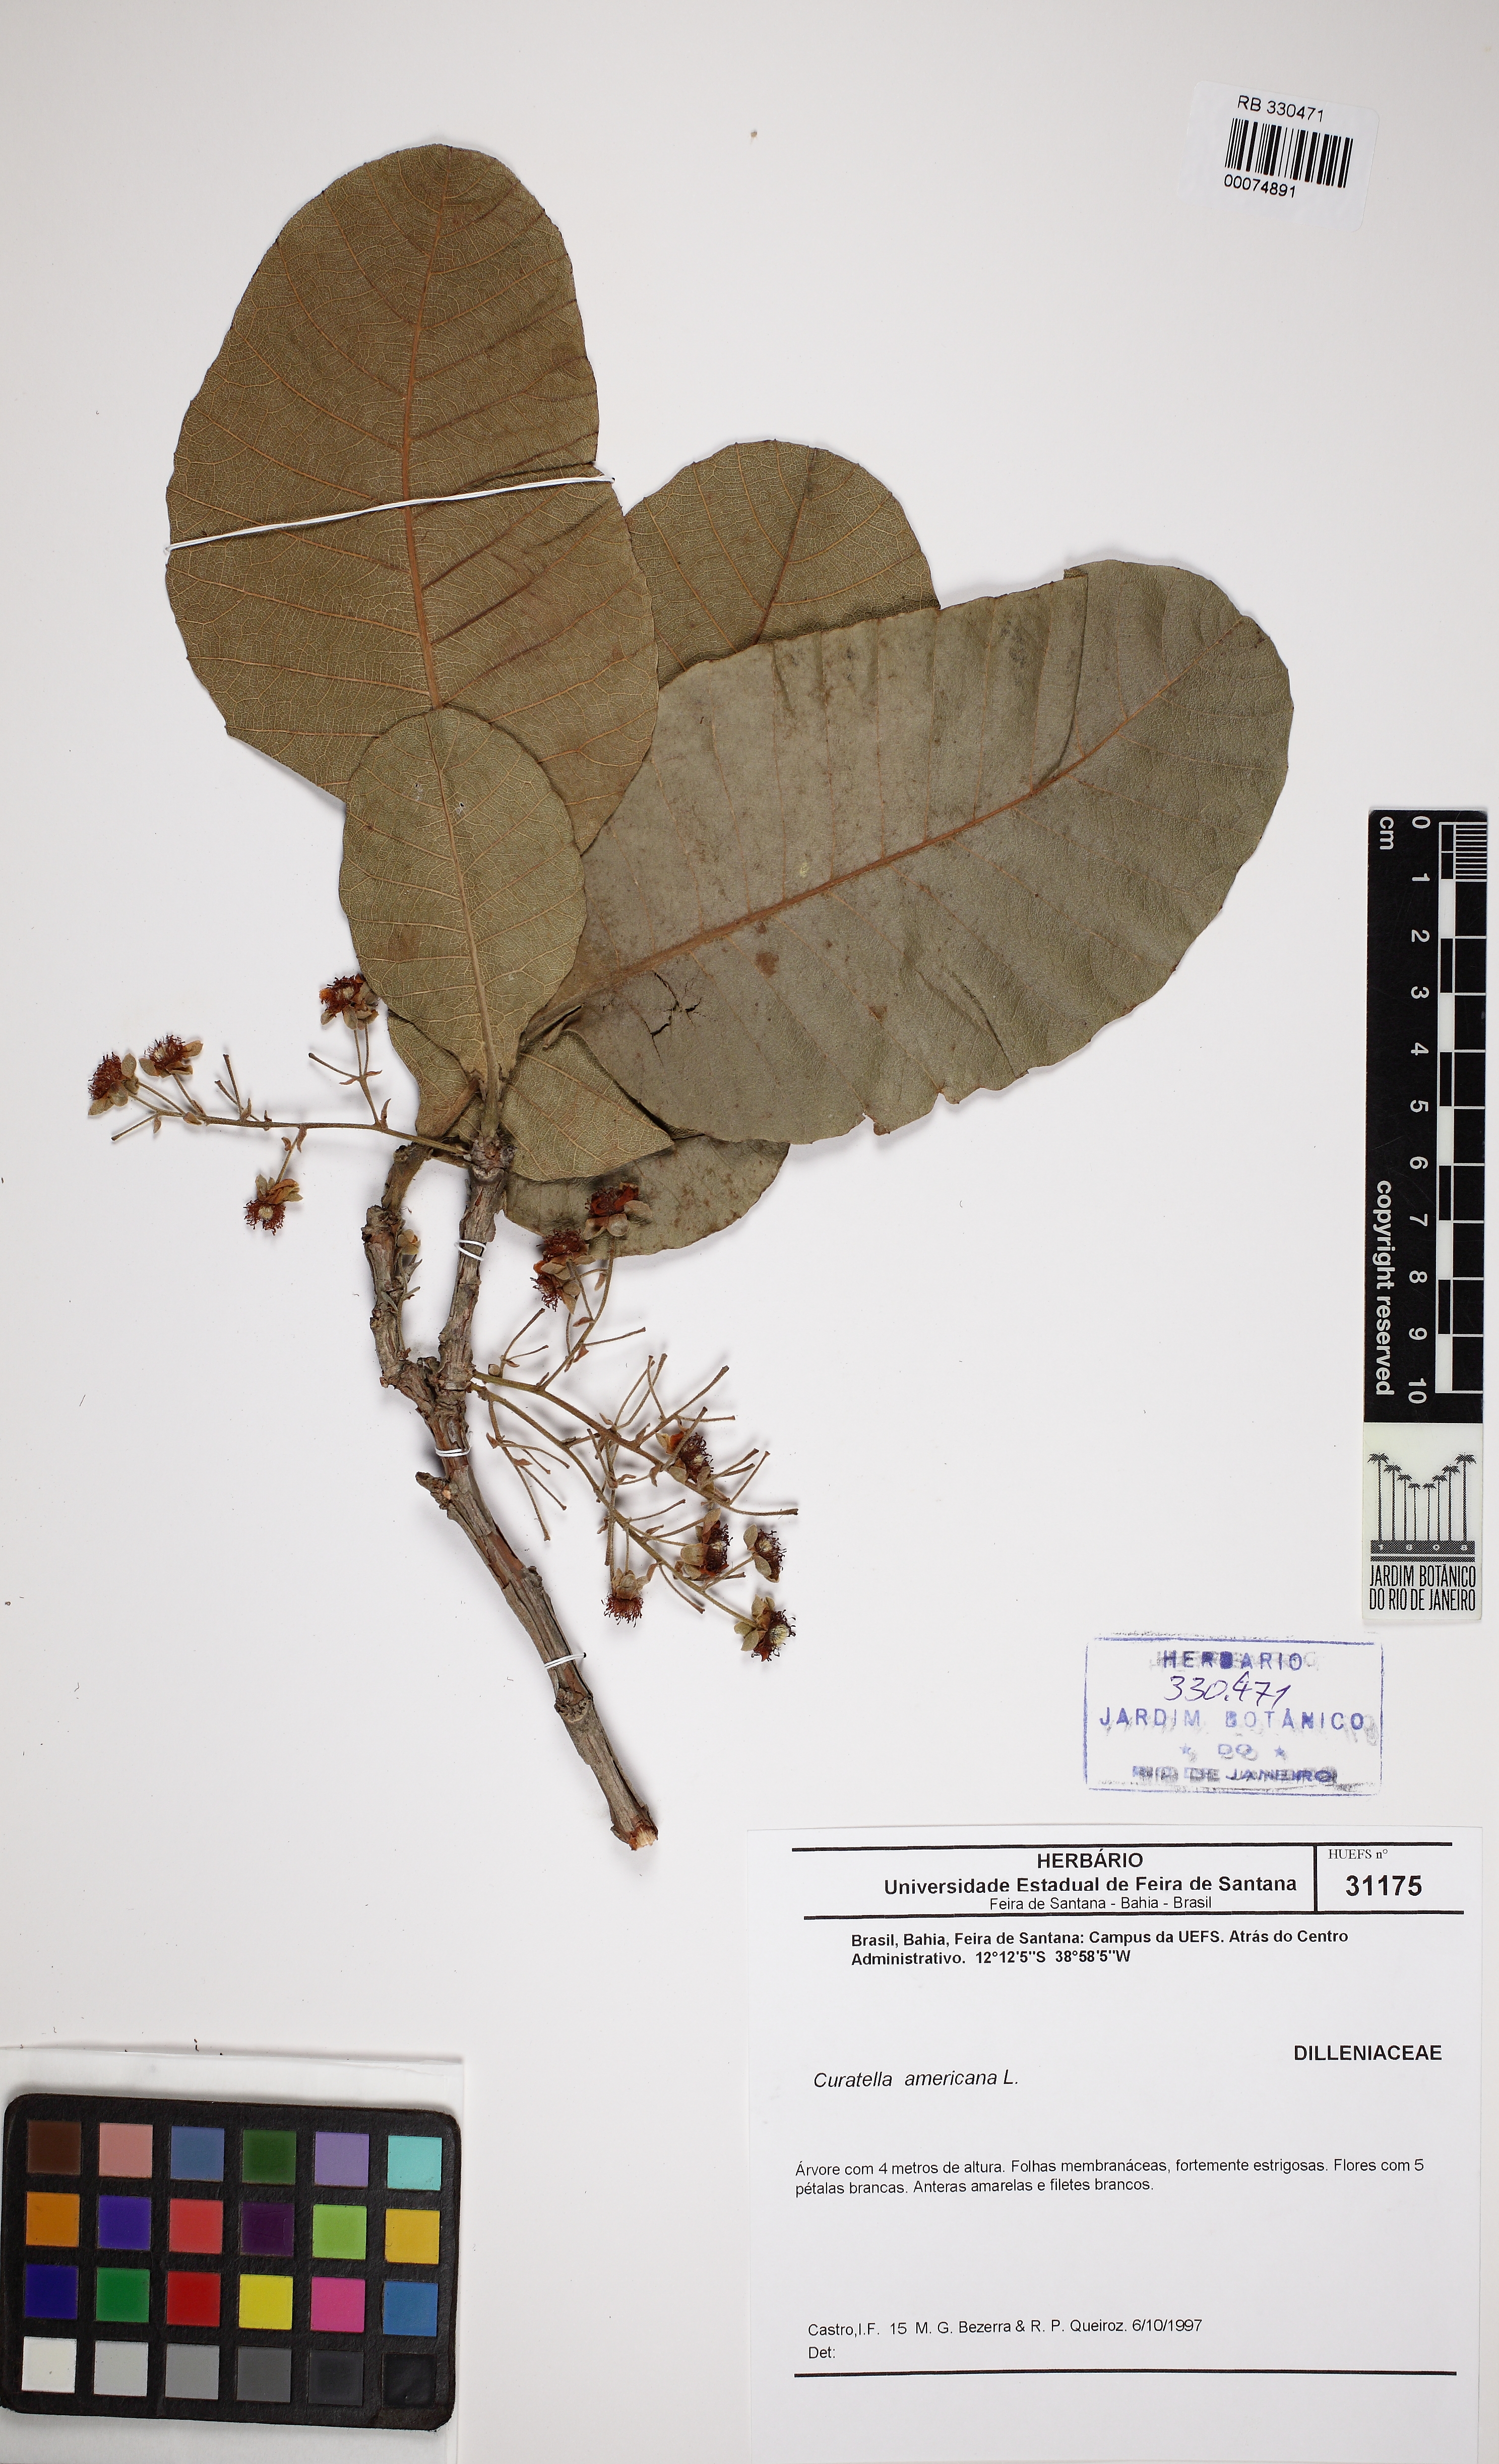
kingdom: Plantae
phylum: Tracheophyta
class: Magnoliopsida
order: Dilleniales
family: Dilleniaceae
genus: Curatella
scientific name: Curatella americana
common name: Sandpaper tree
